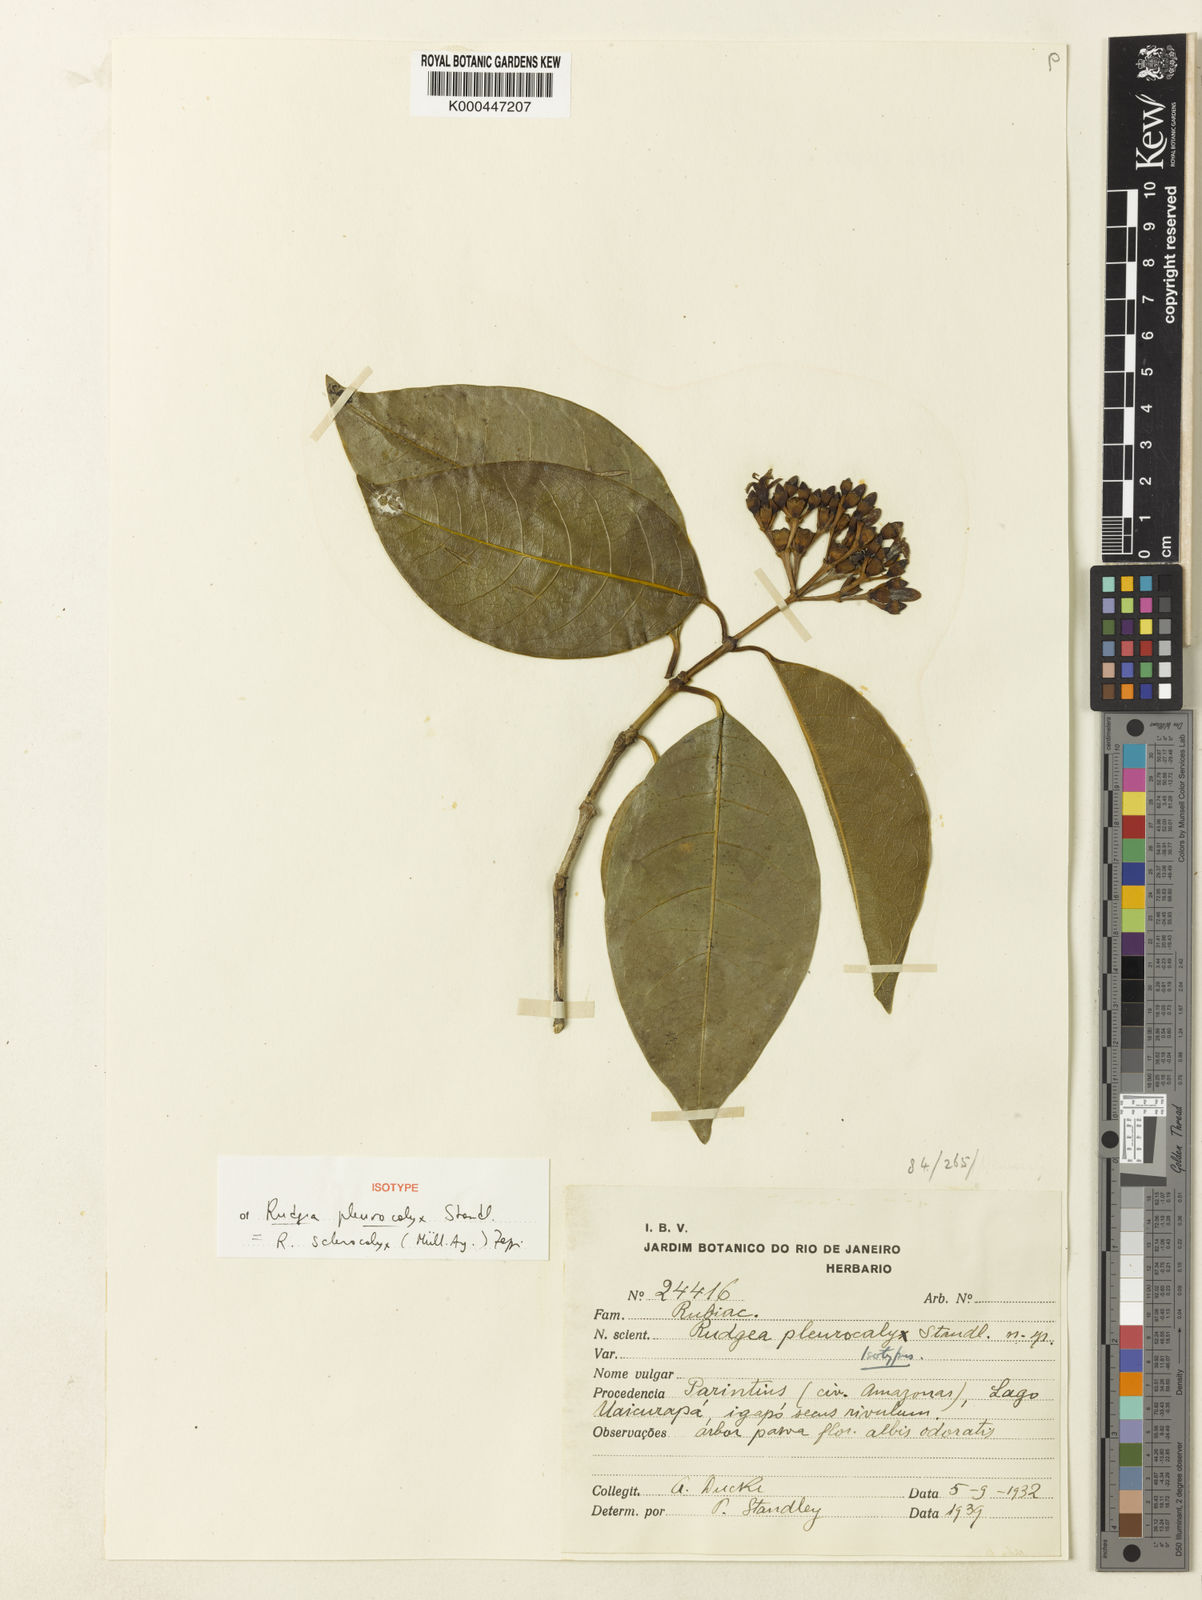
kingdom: Plantae
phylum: Tracheophyta
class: Magnoliopsida
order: Gentianales
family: Rubiaceae
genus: Rudgea
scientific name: Rudgea
